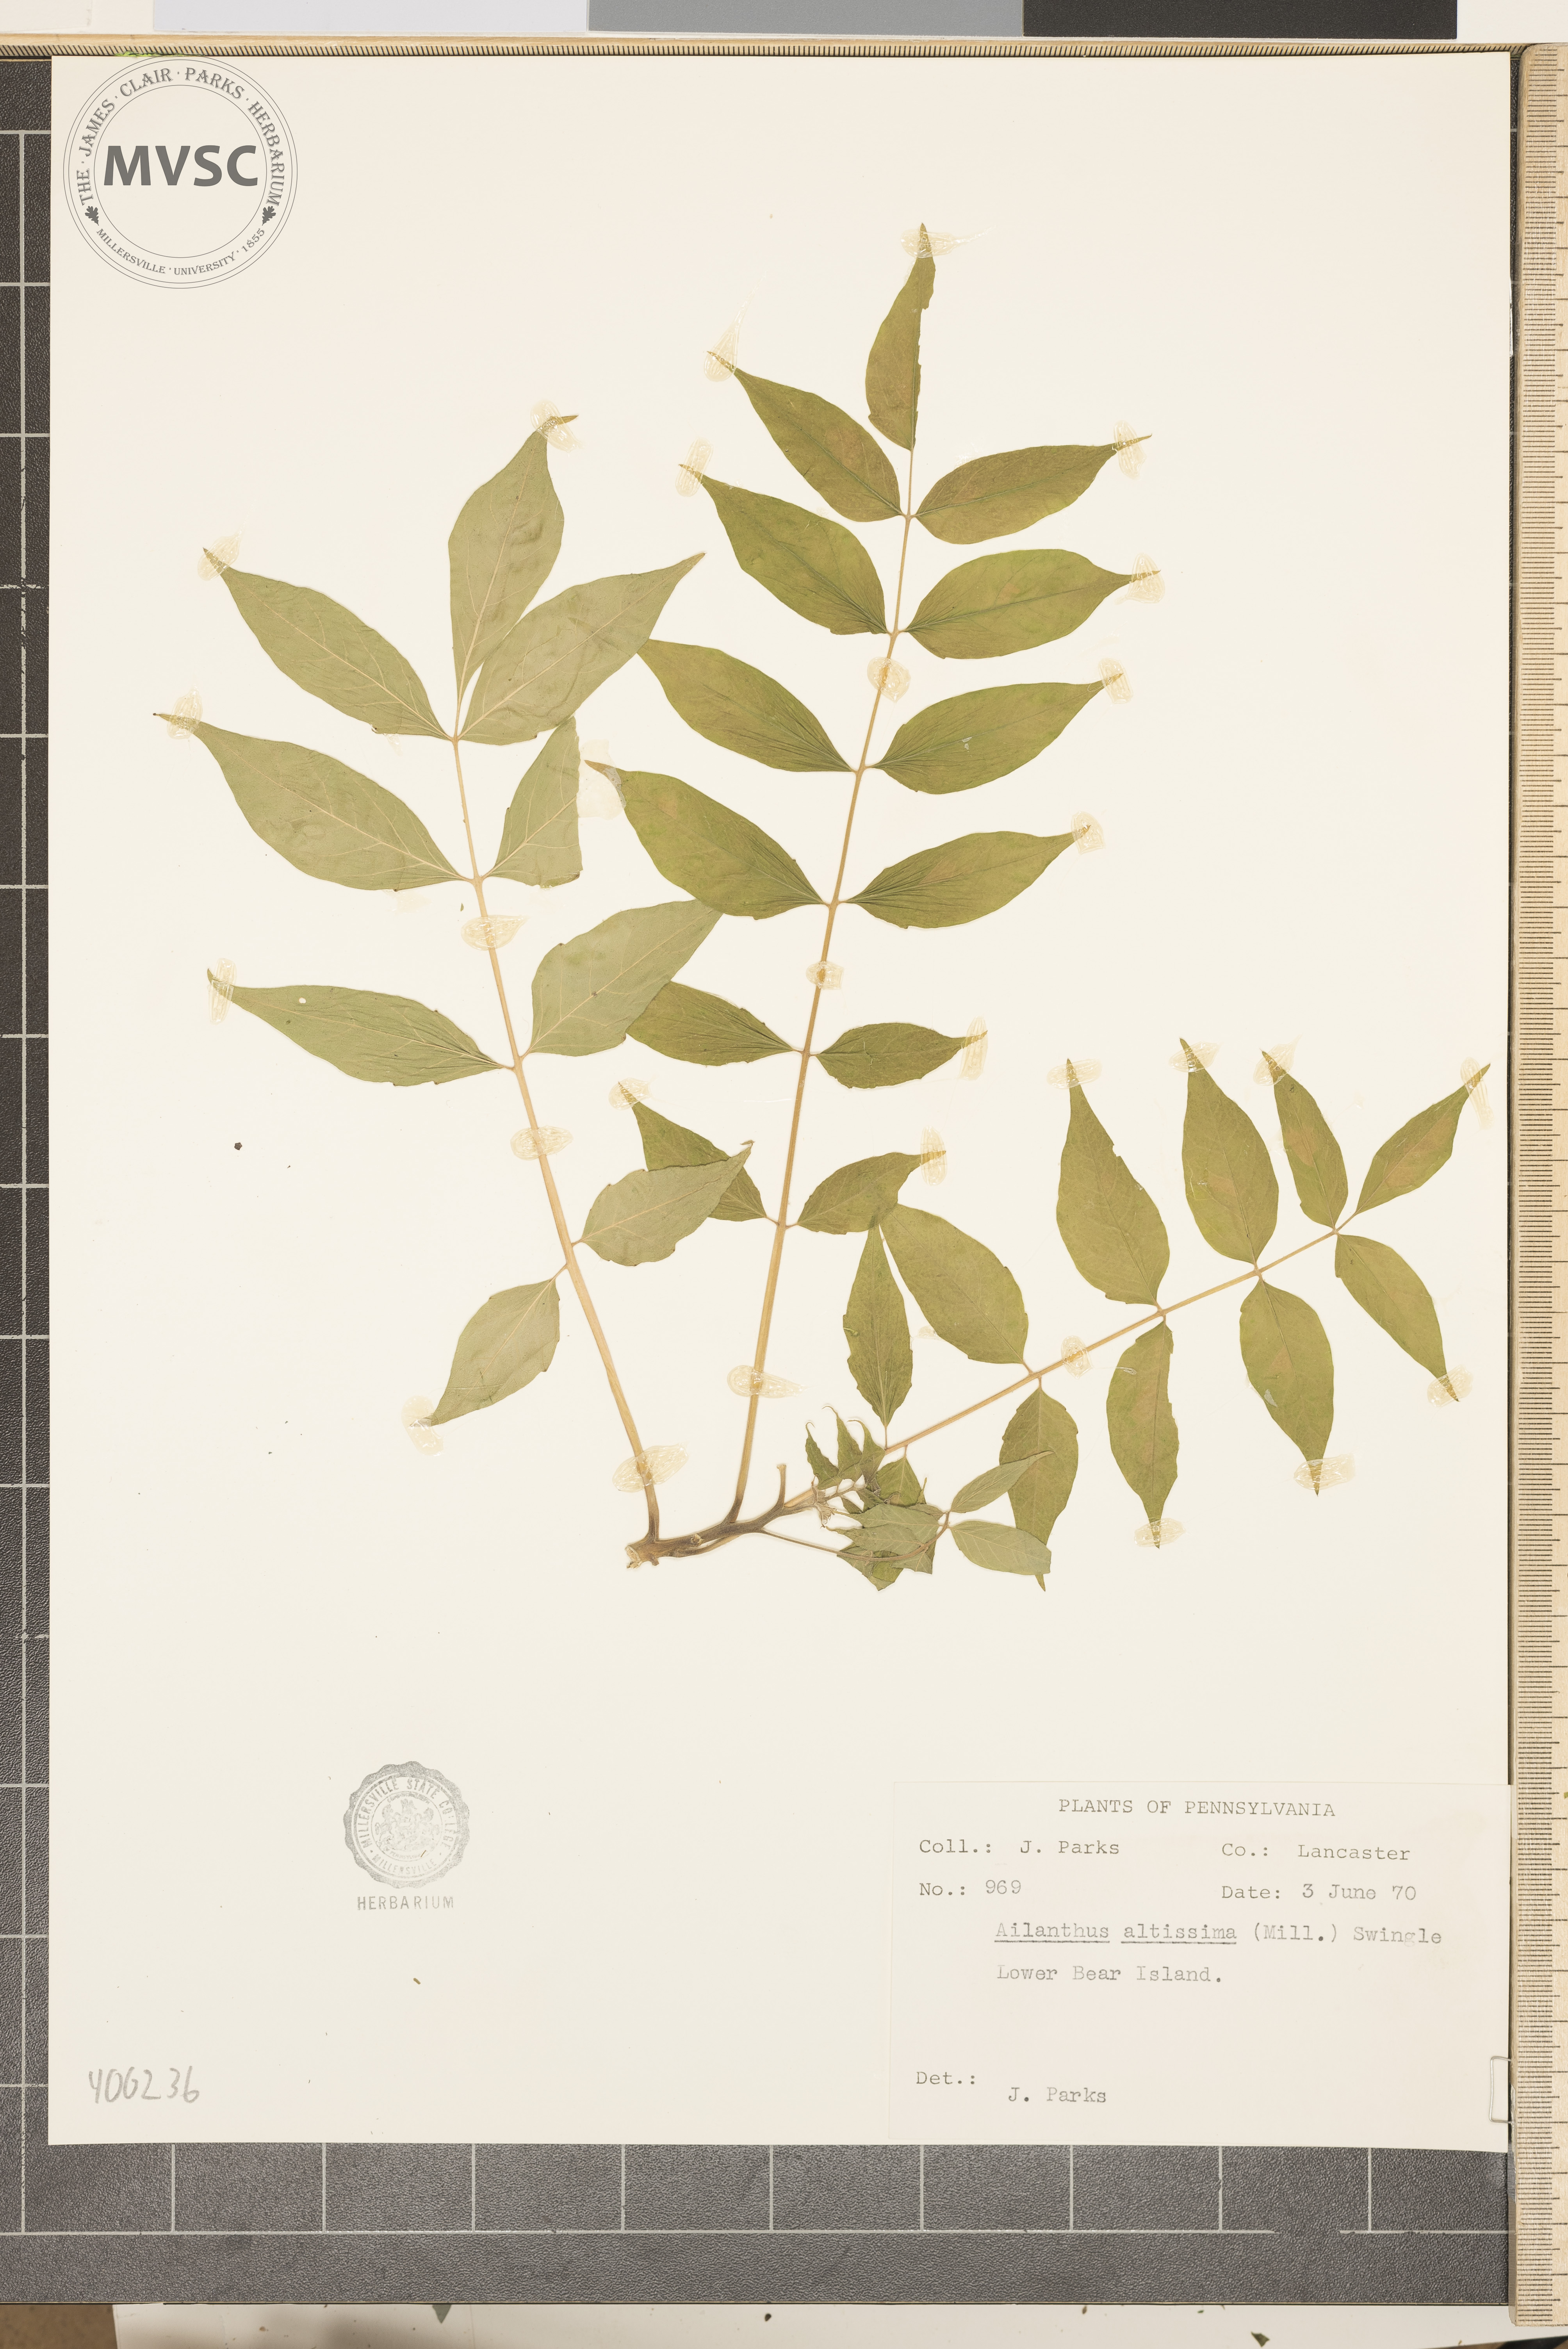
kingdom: Plantae
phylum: Tracheophyta
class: Magnoliopsida
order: Sapindales
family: Simaroubaceae
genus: Ailanthus
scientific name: Ailanthus altissima
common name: tree-of-heaven
